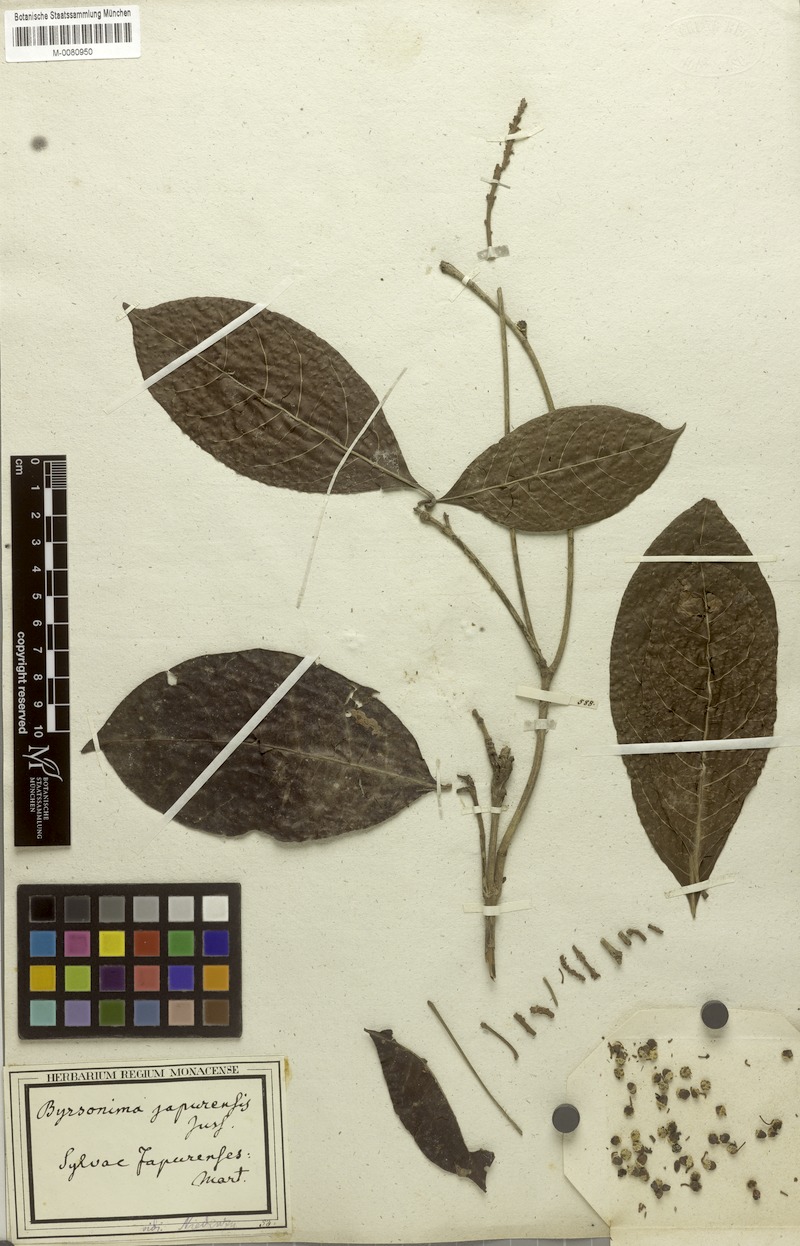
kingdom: Plantae
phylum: Tracheophyta
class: Magnoliopsida
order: Malpighiales
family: Malpighiaceae
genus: Byrsonima
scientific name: Byrsonima japurensis
